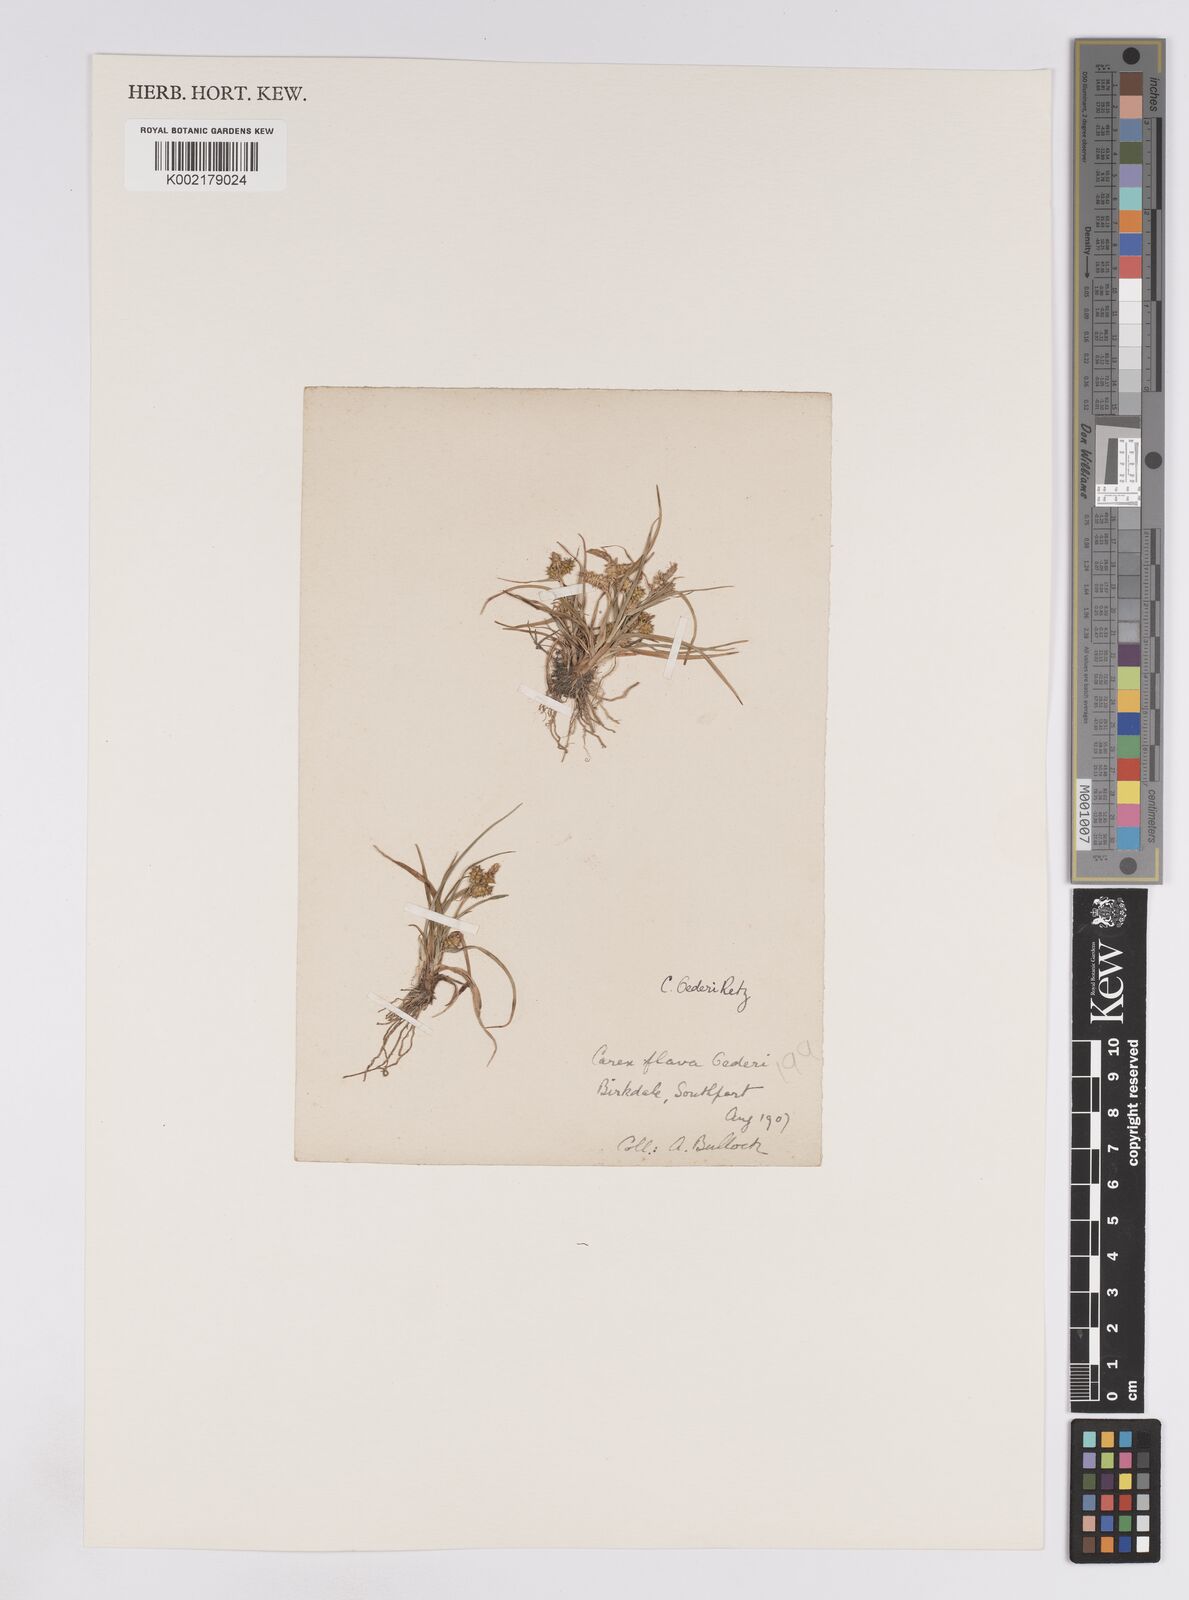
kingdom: Plantae
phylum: Tracheophyta
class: Liliopsida
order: Poales
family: Cyperaceae
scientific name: Cyperaceae
